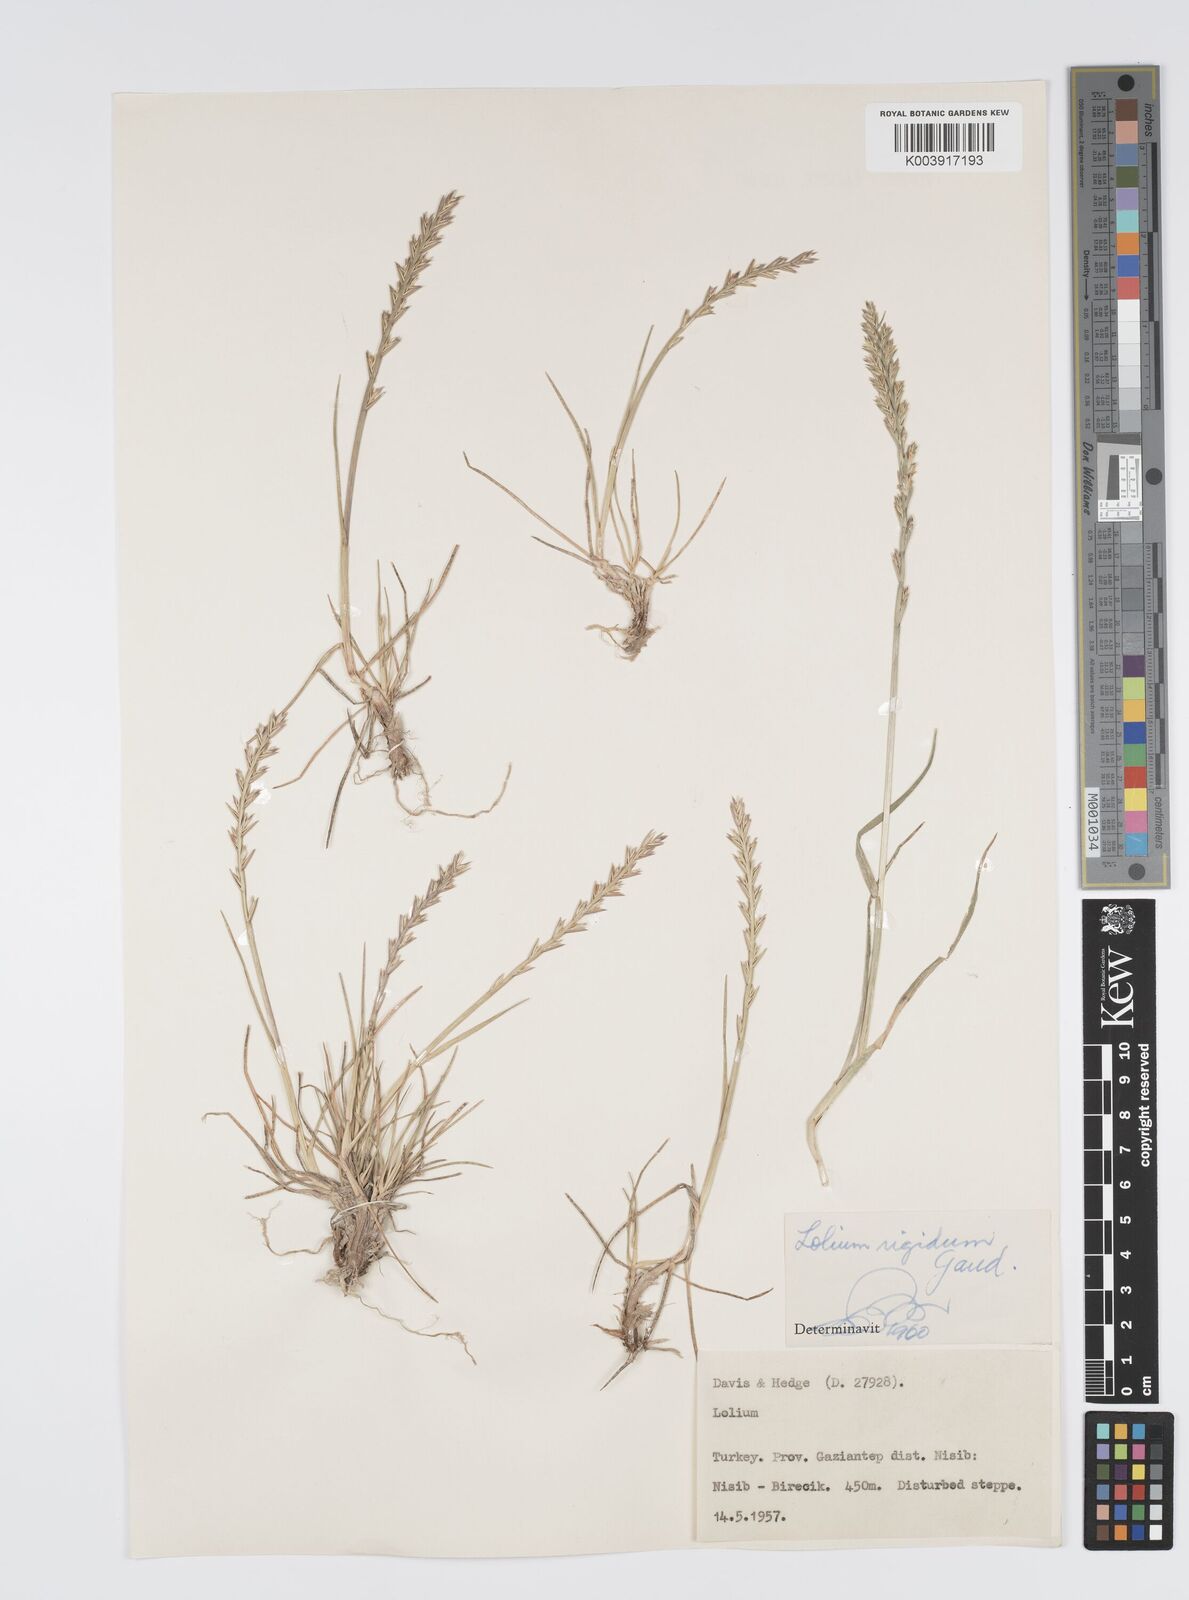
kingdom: Plantae
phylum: Tracheophyta
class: Liliopsida
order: Poales
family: Poaceae
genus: Lolium
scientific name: Lolium rigidum
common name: Wimmera ryegrass
